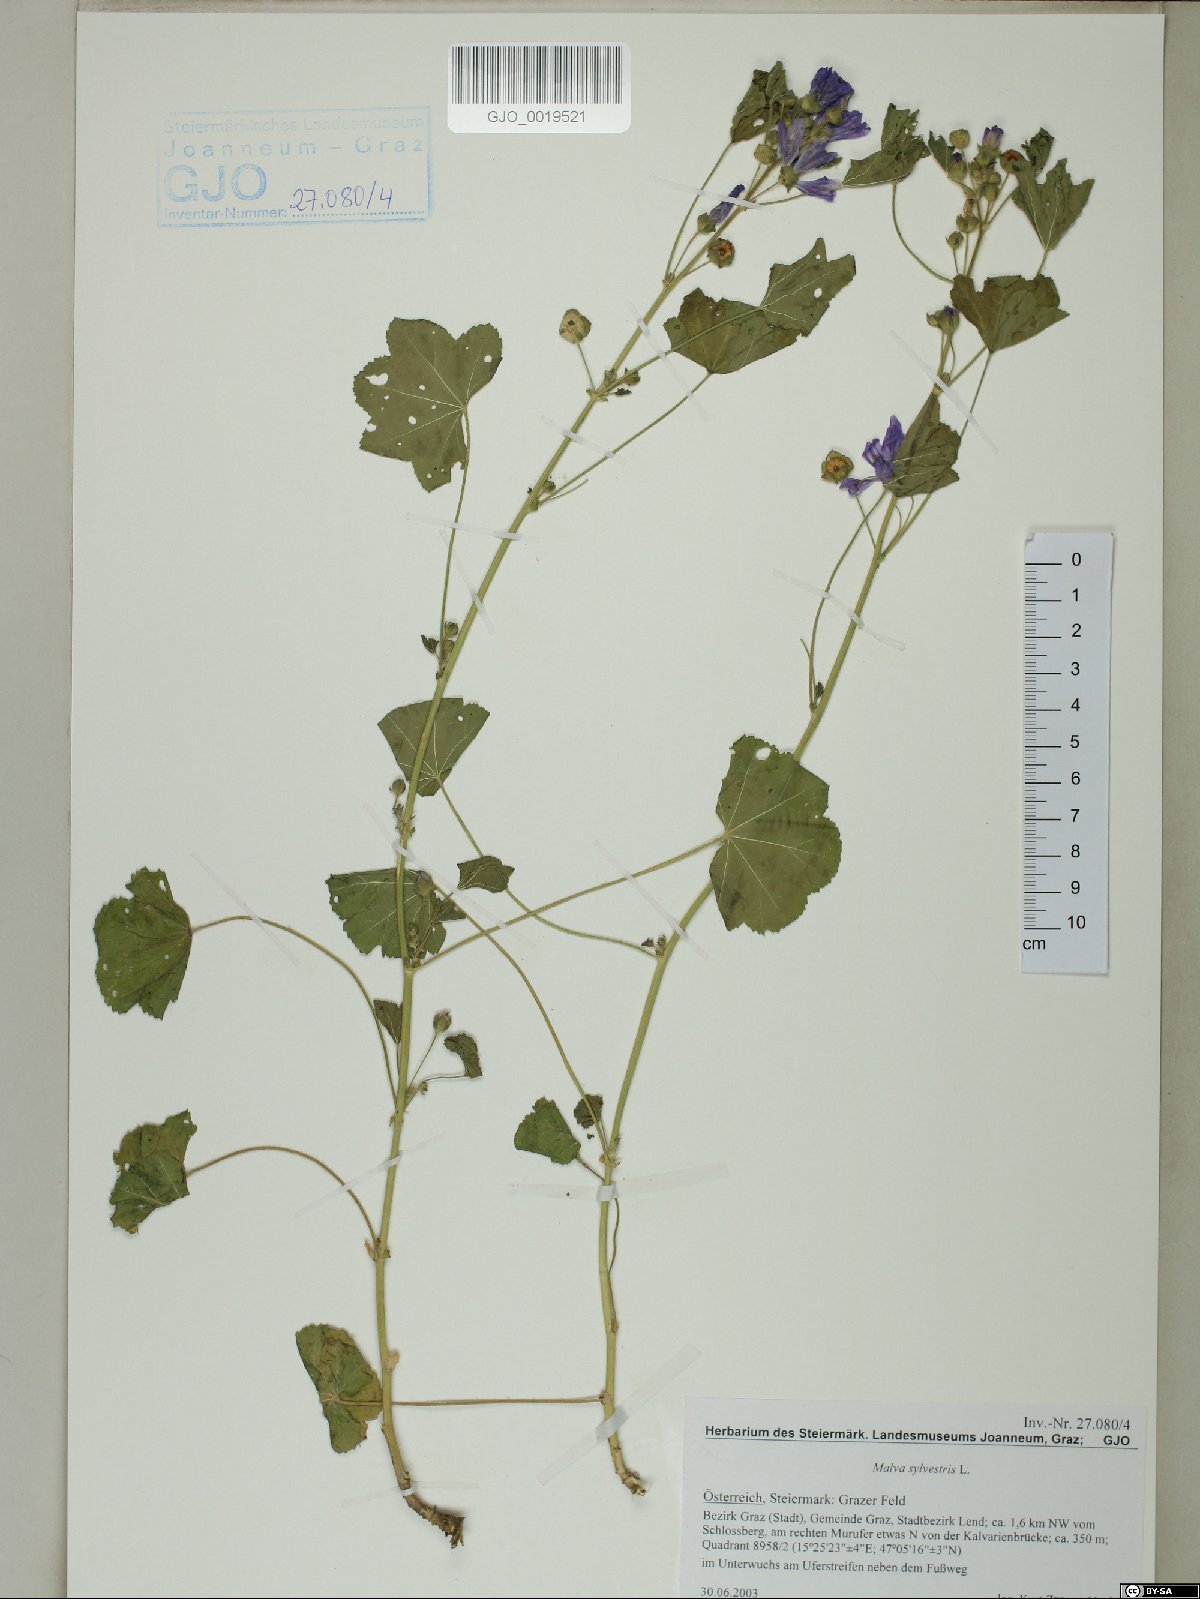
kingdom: Plantae
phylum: Tracheophyta
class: Magnoliopsida
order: Malvales
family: Malvaceae
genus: Malva
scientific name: Malva sylvestris
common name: Common mallow
